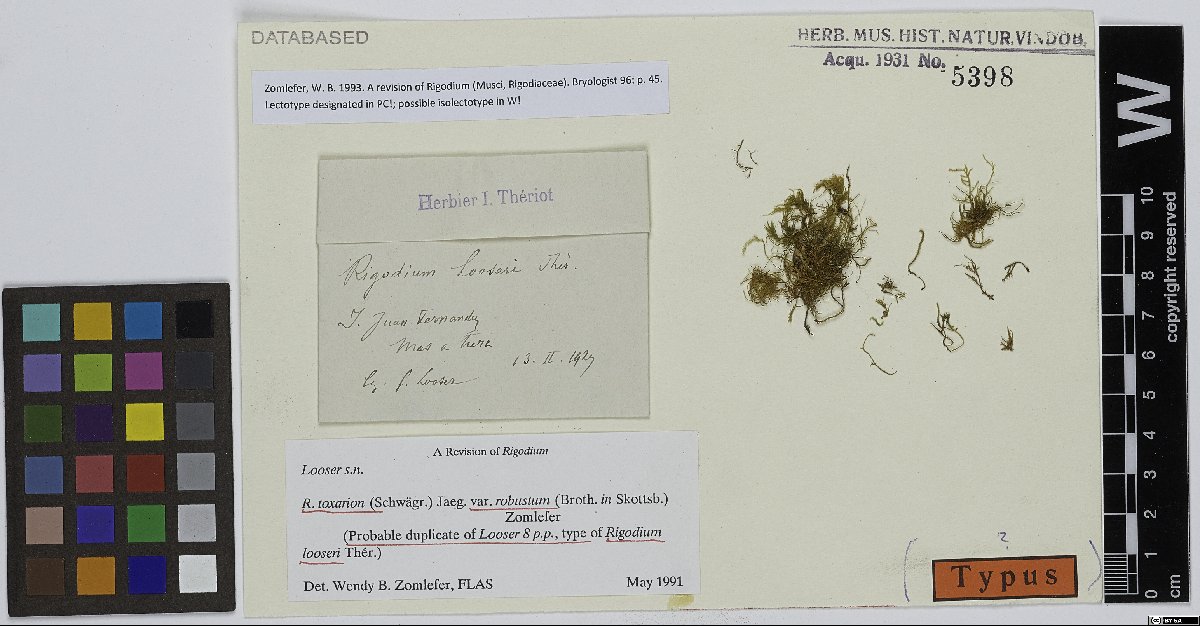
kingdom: Plantae
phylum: Bryophyta
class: Bryopsida
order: Hypnales
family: Lembophyllaceae
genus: Rigodium
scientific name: Rigodium toxarion
